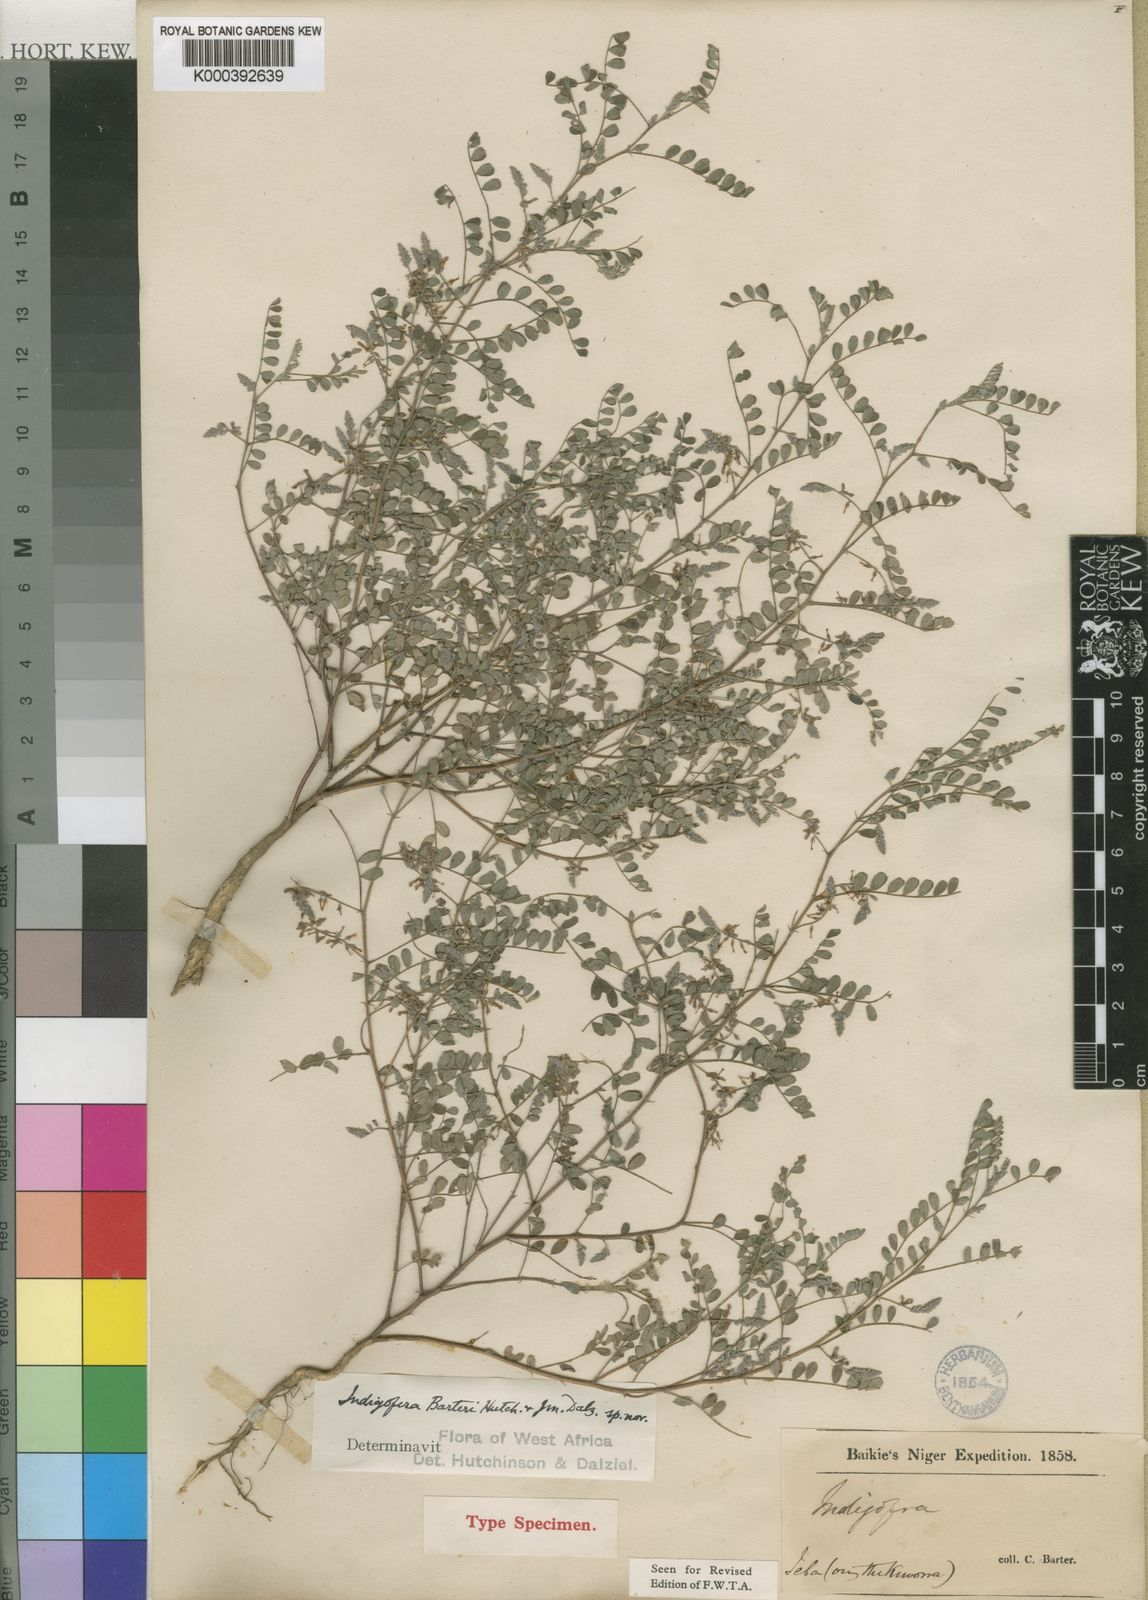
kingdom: Plantae
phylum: Tracheophyta
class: Magnoliopsida
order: Fabales
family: Fabaceae
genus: Indigofera
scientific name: Indigofera barteri
